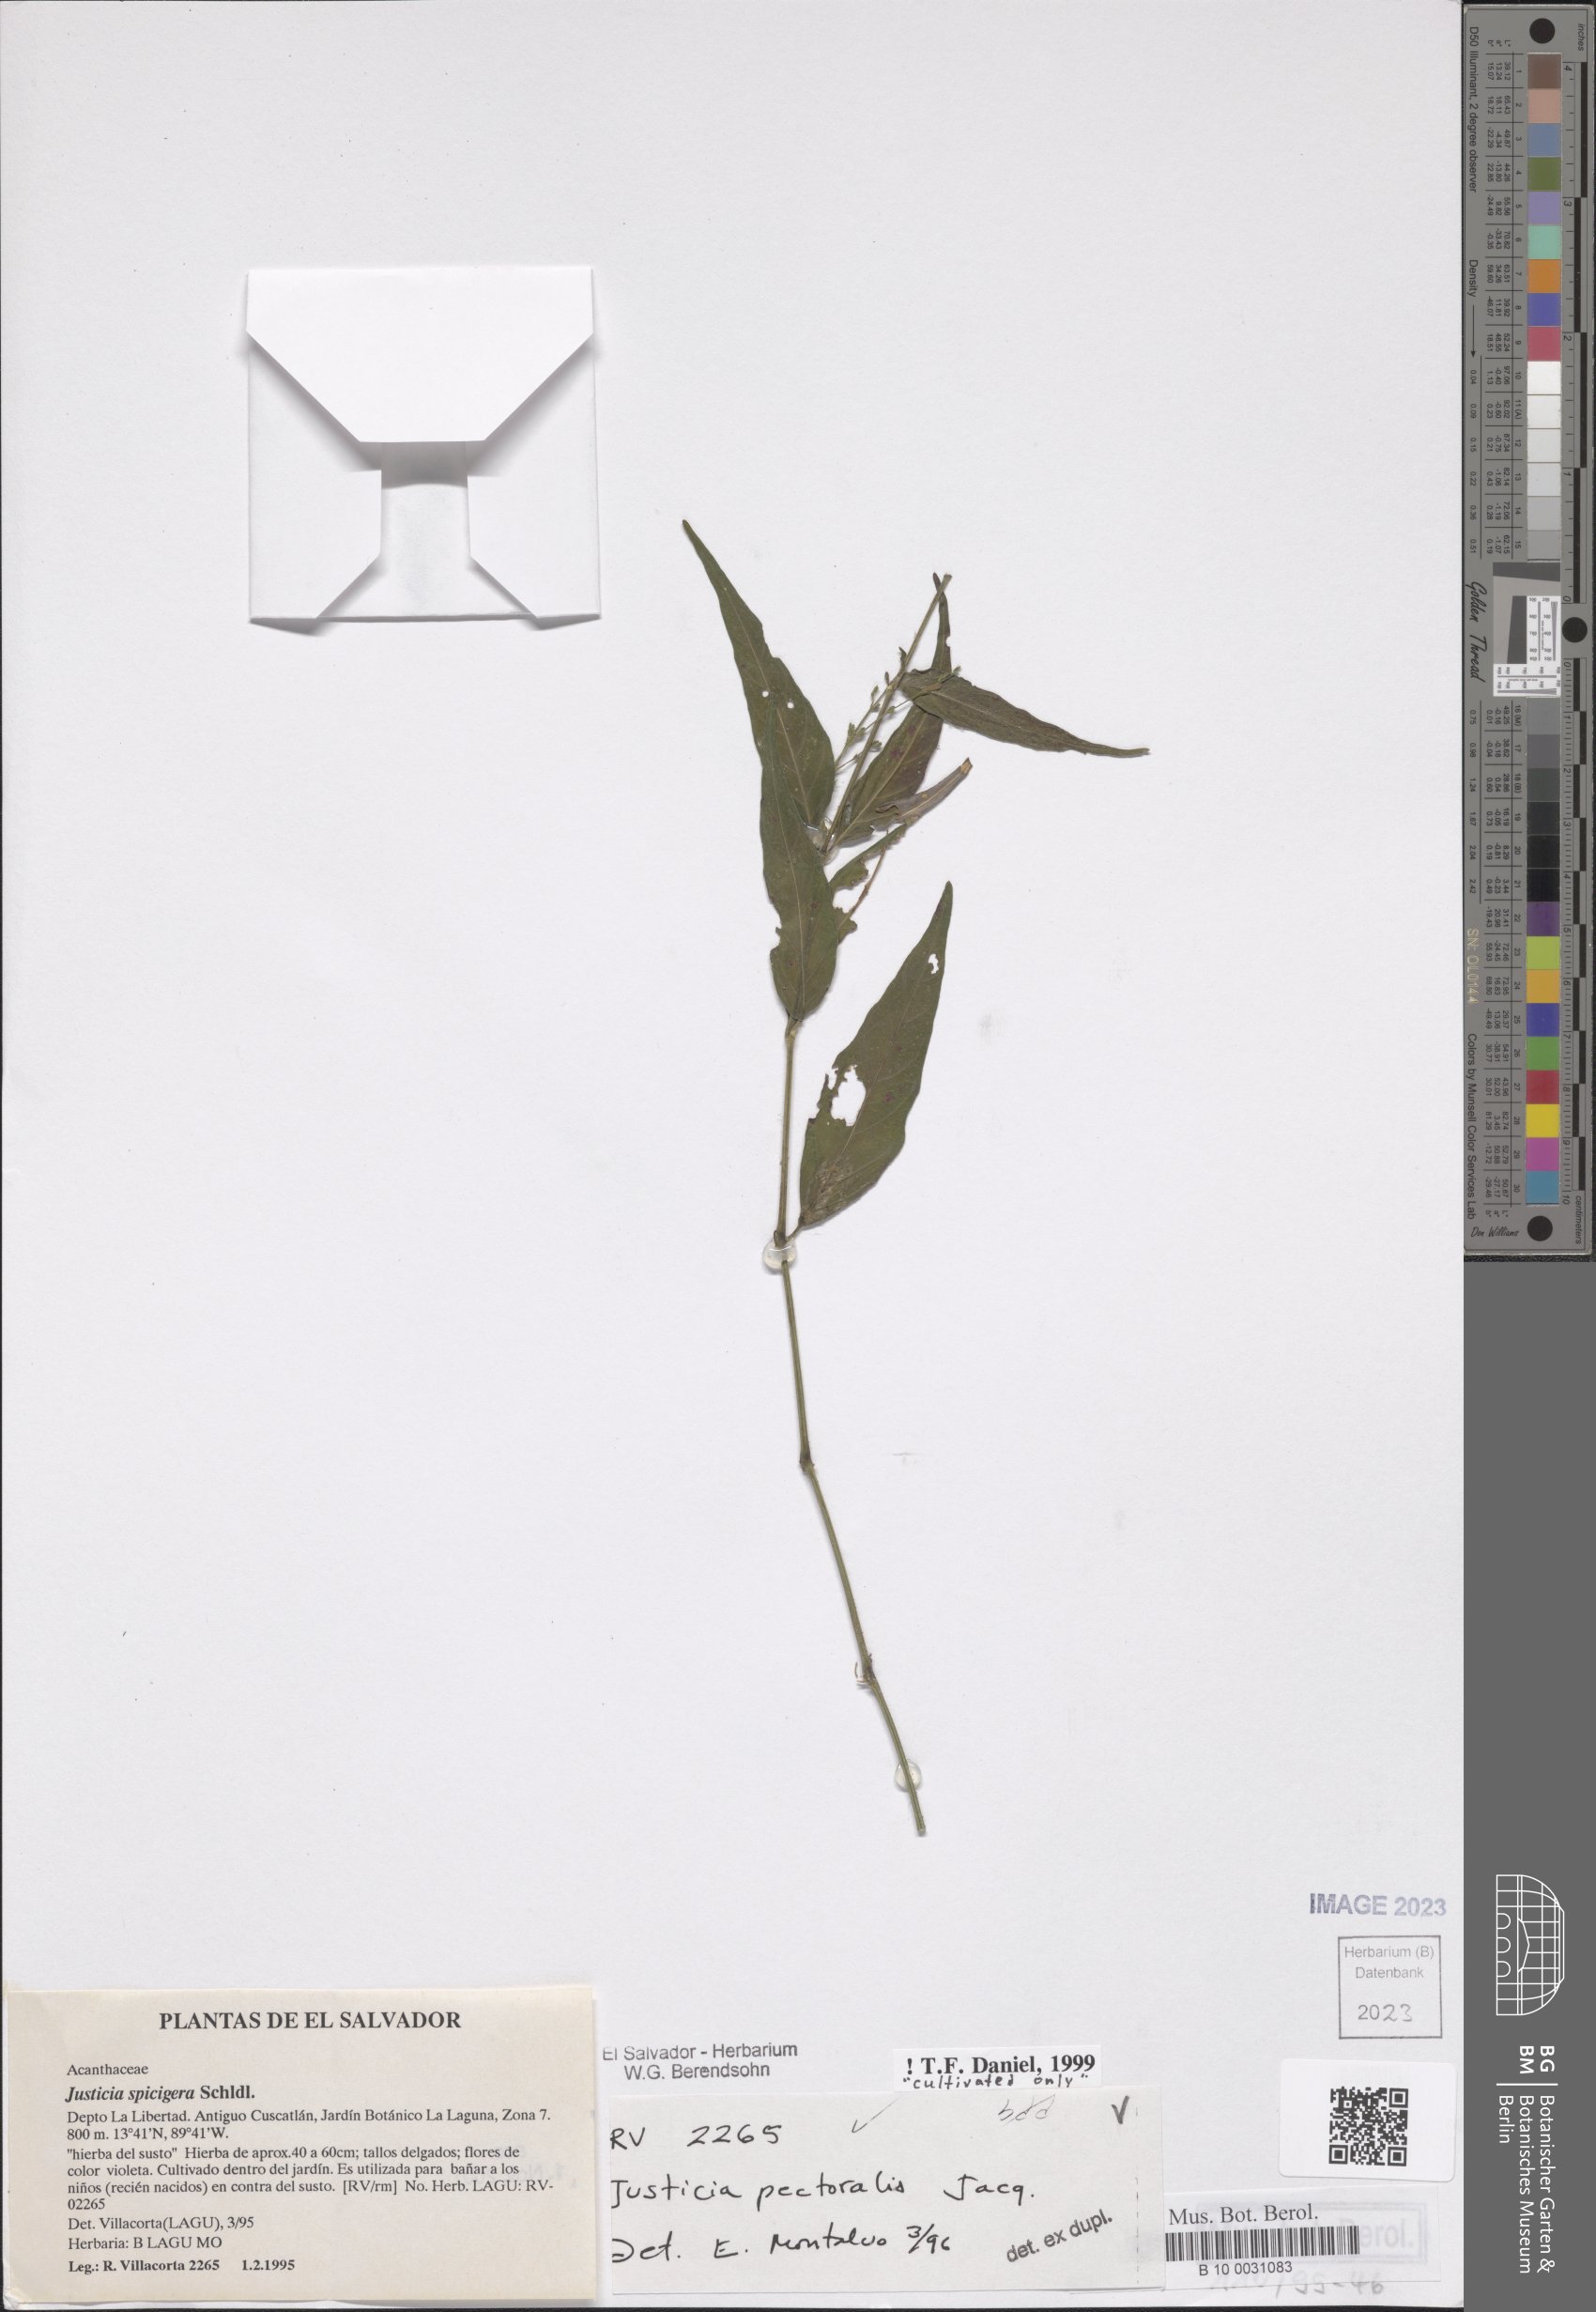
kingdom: Plantae
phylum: Tracheophyta
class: Magnoliopsida
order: Lamiales
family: Acanthaceae
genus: Dianthera
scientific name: Dianthera pectoralis
